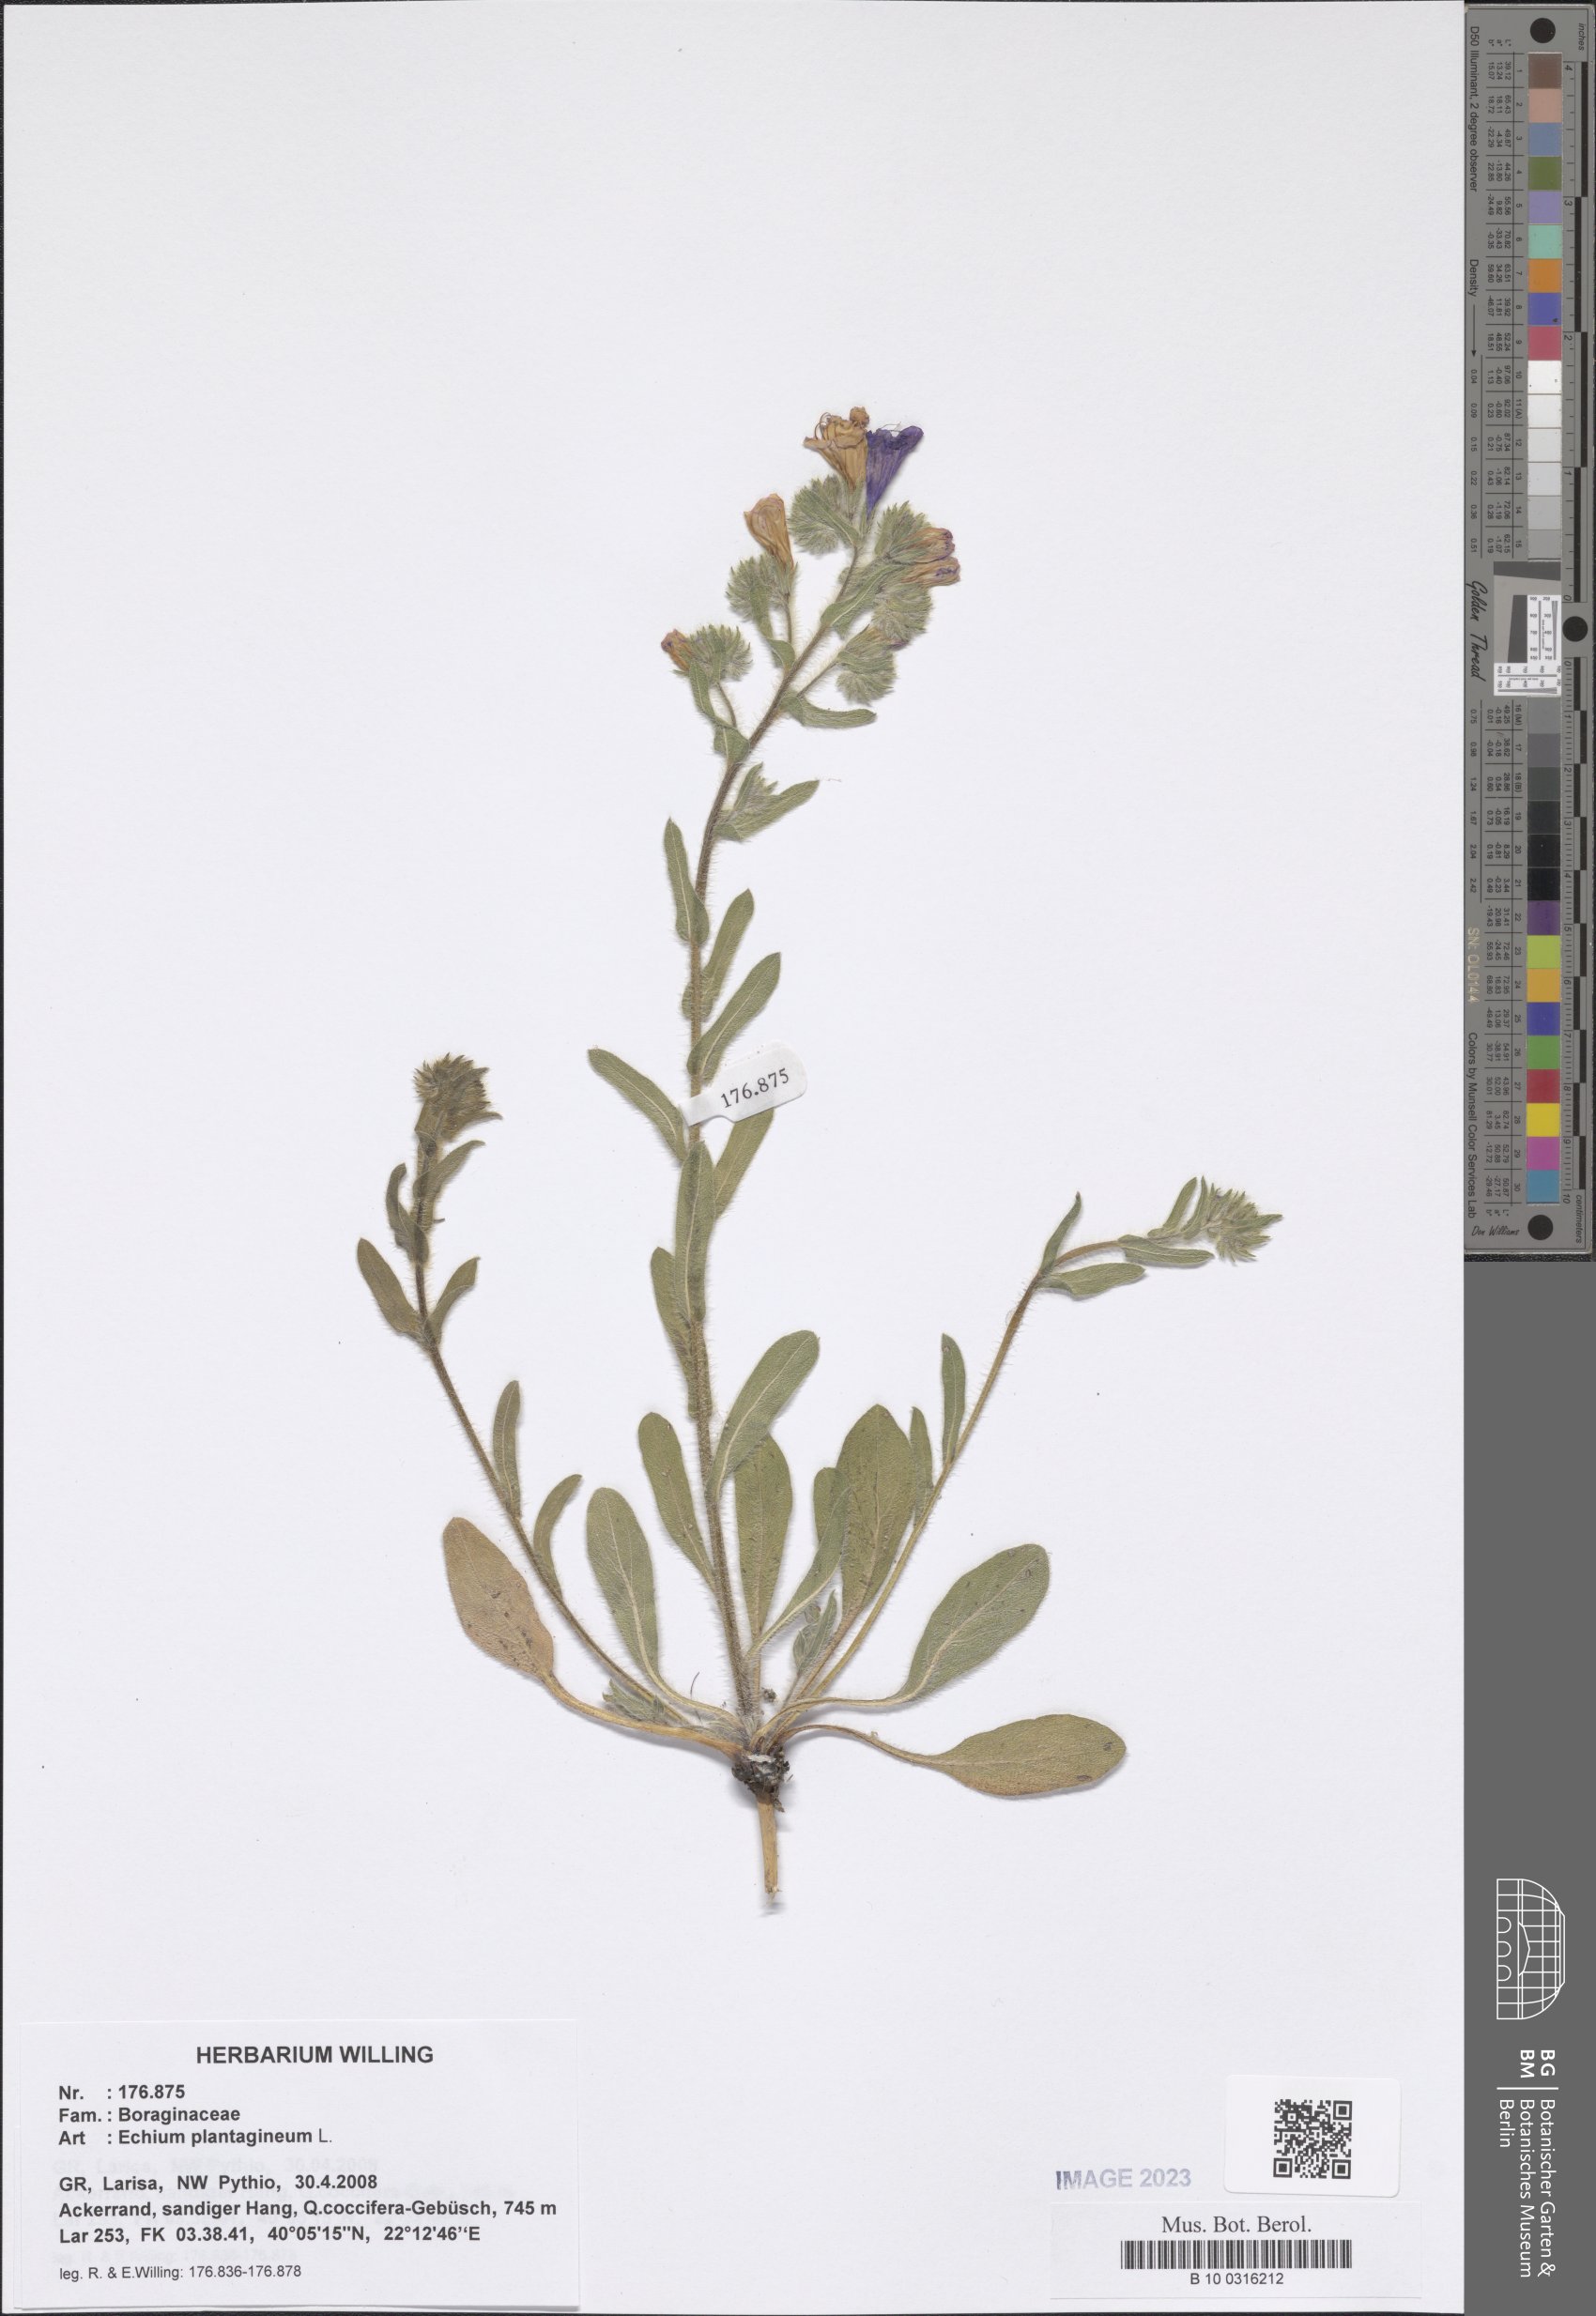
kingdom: Plantae
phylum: Tracheophyta
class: Magnoliopsida
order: Boraginales
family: Boraginaceae
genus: Echium
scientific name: Echium plantagineum
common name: Purple viper's-bugloss
